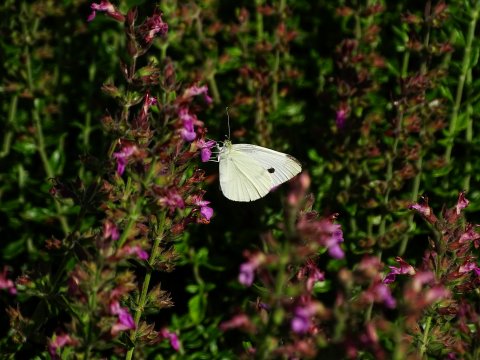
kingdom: Animalia
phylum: Arthropoda
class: Insecta
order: Lepidoptera
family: Pieridae
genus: Pieris
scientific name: Pieris rapae
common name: Cabbage White
